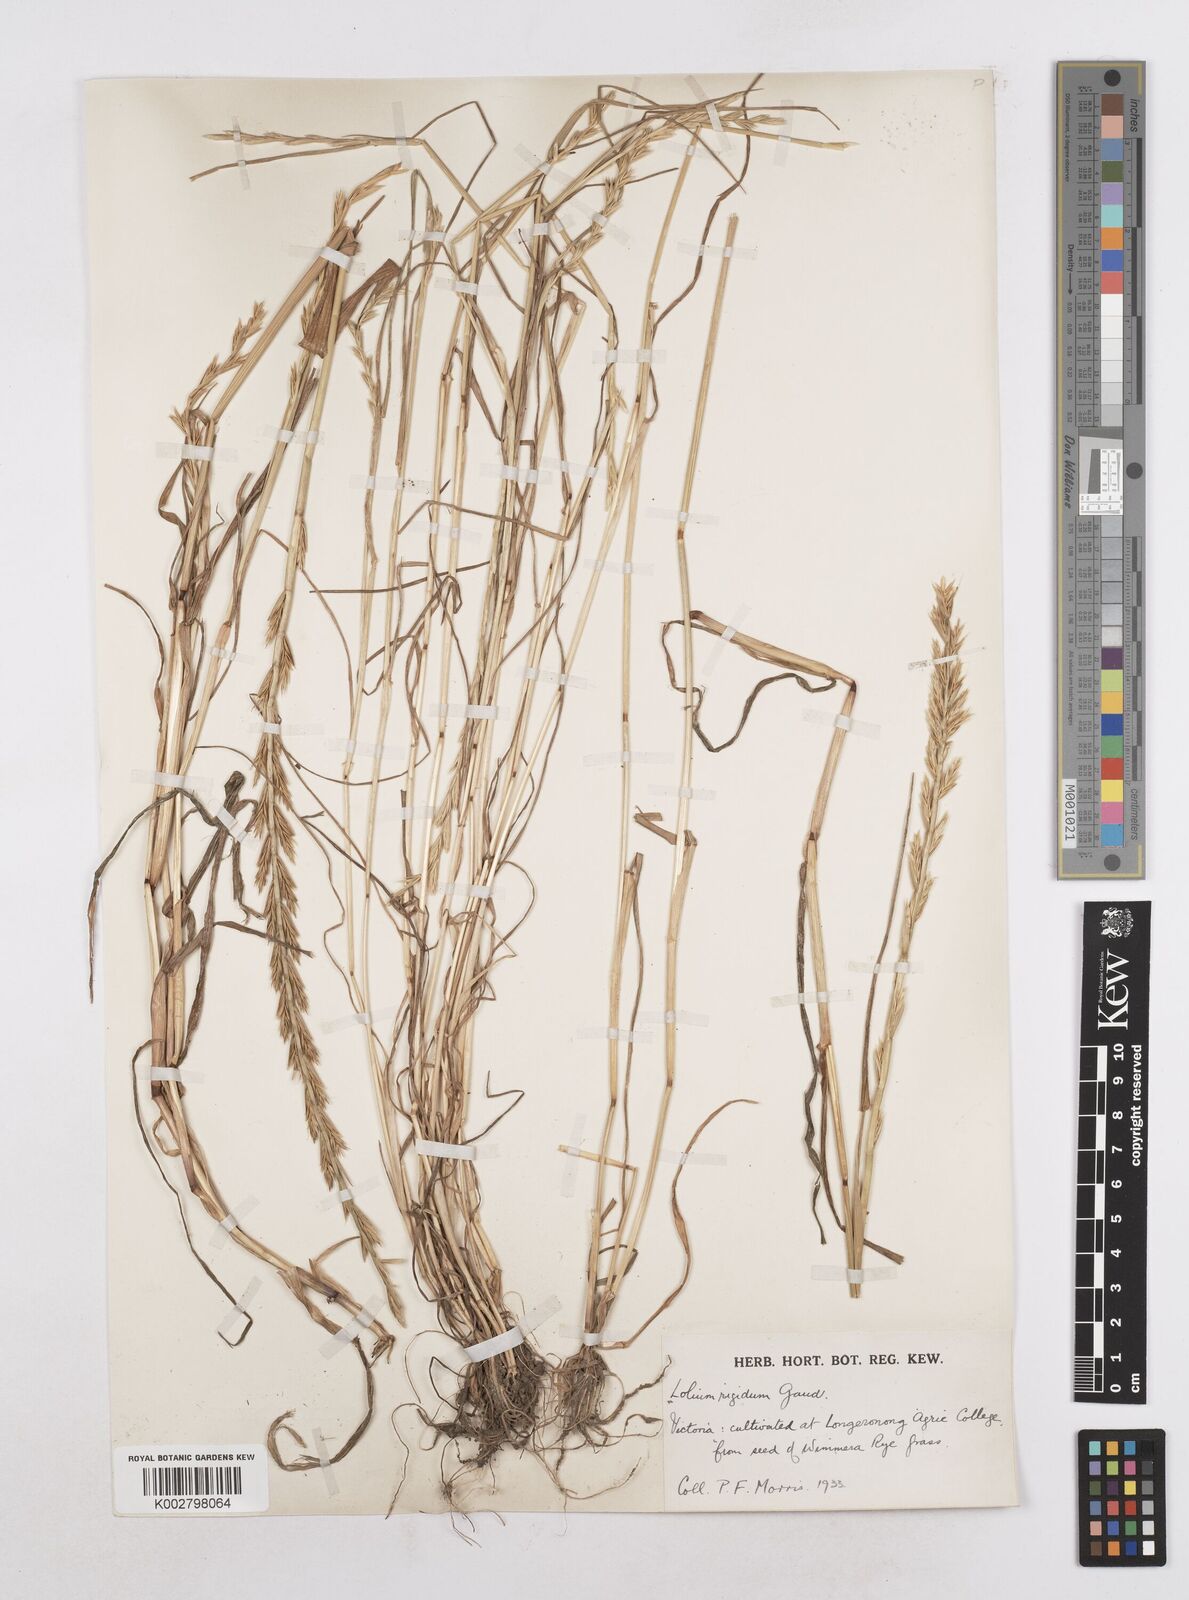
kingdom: Plantae
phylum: Tracheophyta
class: Liliopsida
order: Poales
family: Poaceae
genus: Lolium
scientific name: Lolium rigidum
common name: Wimmera ryegrass
